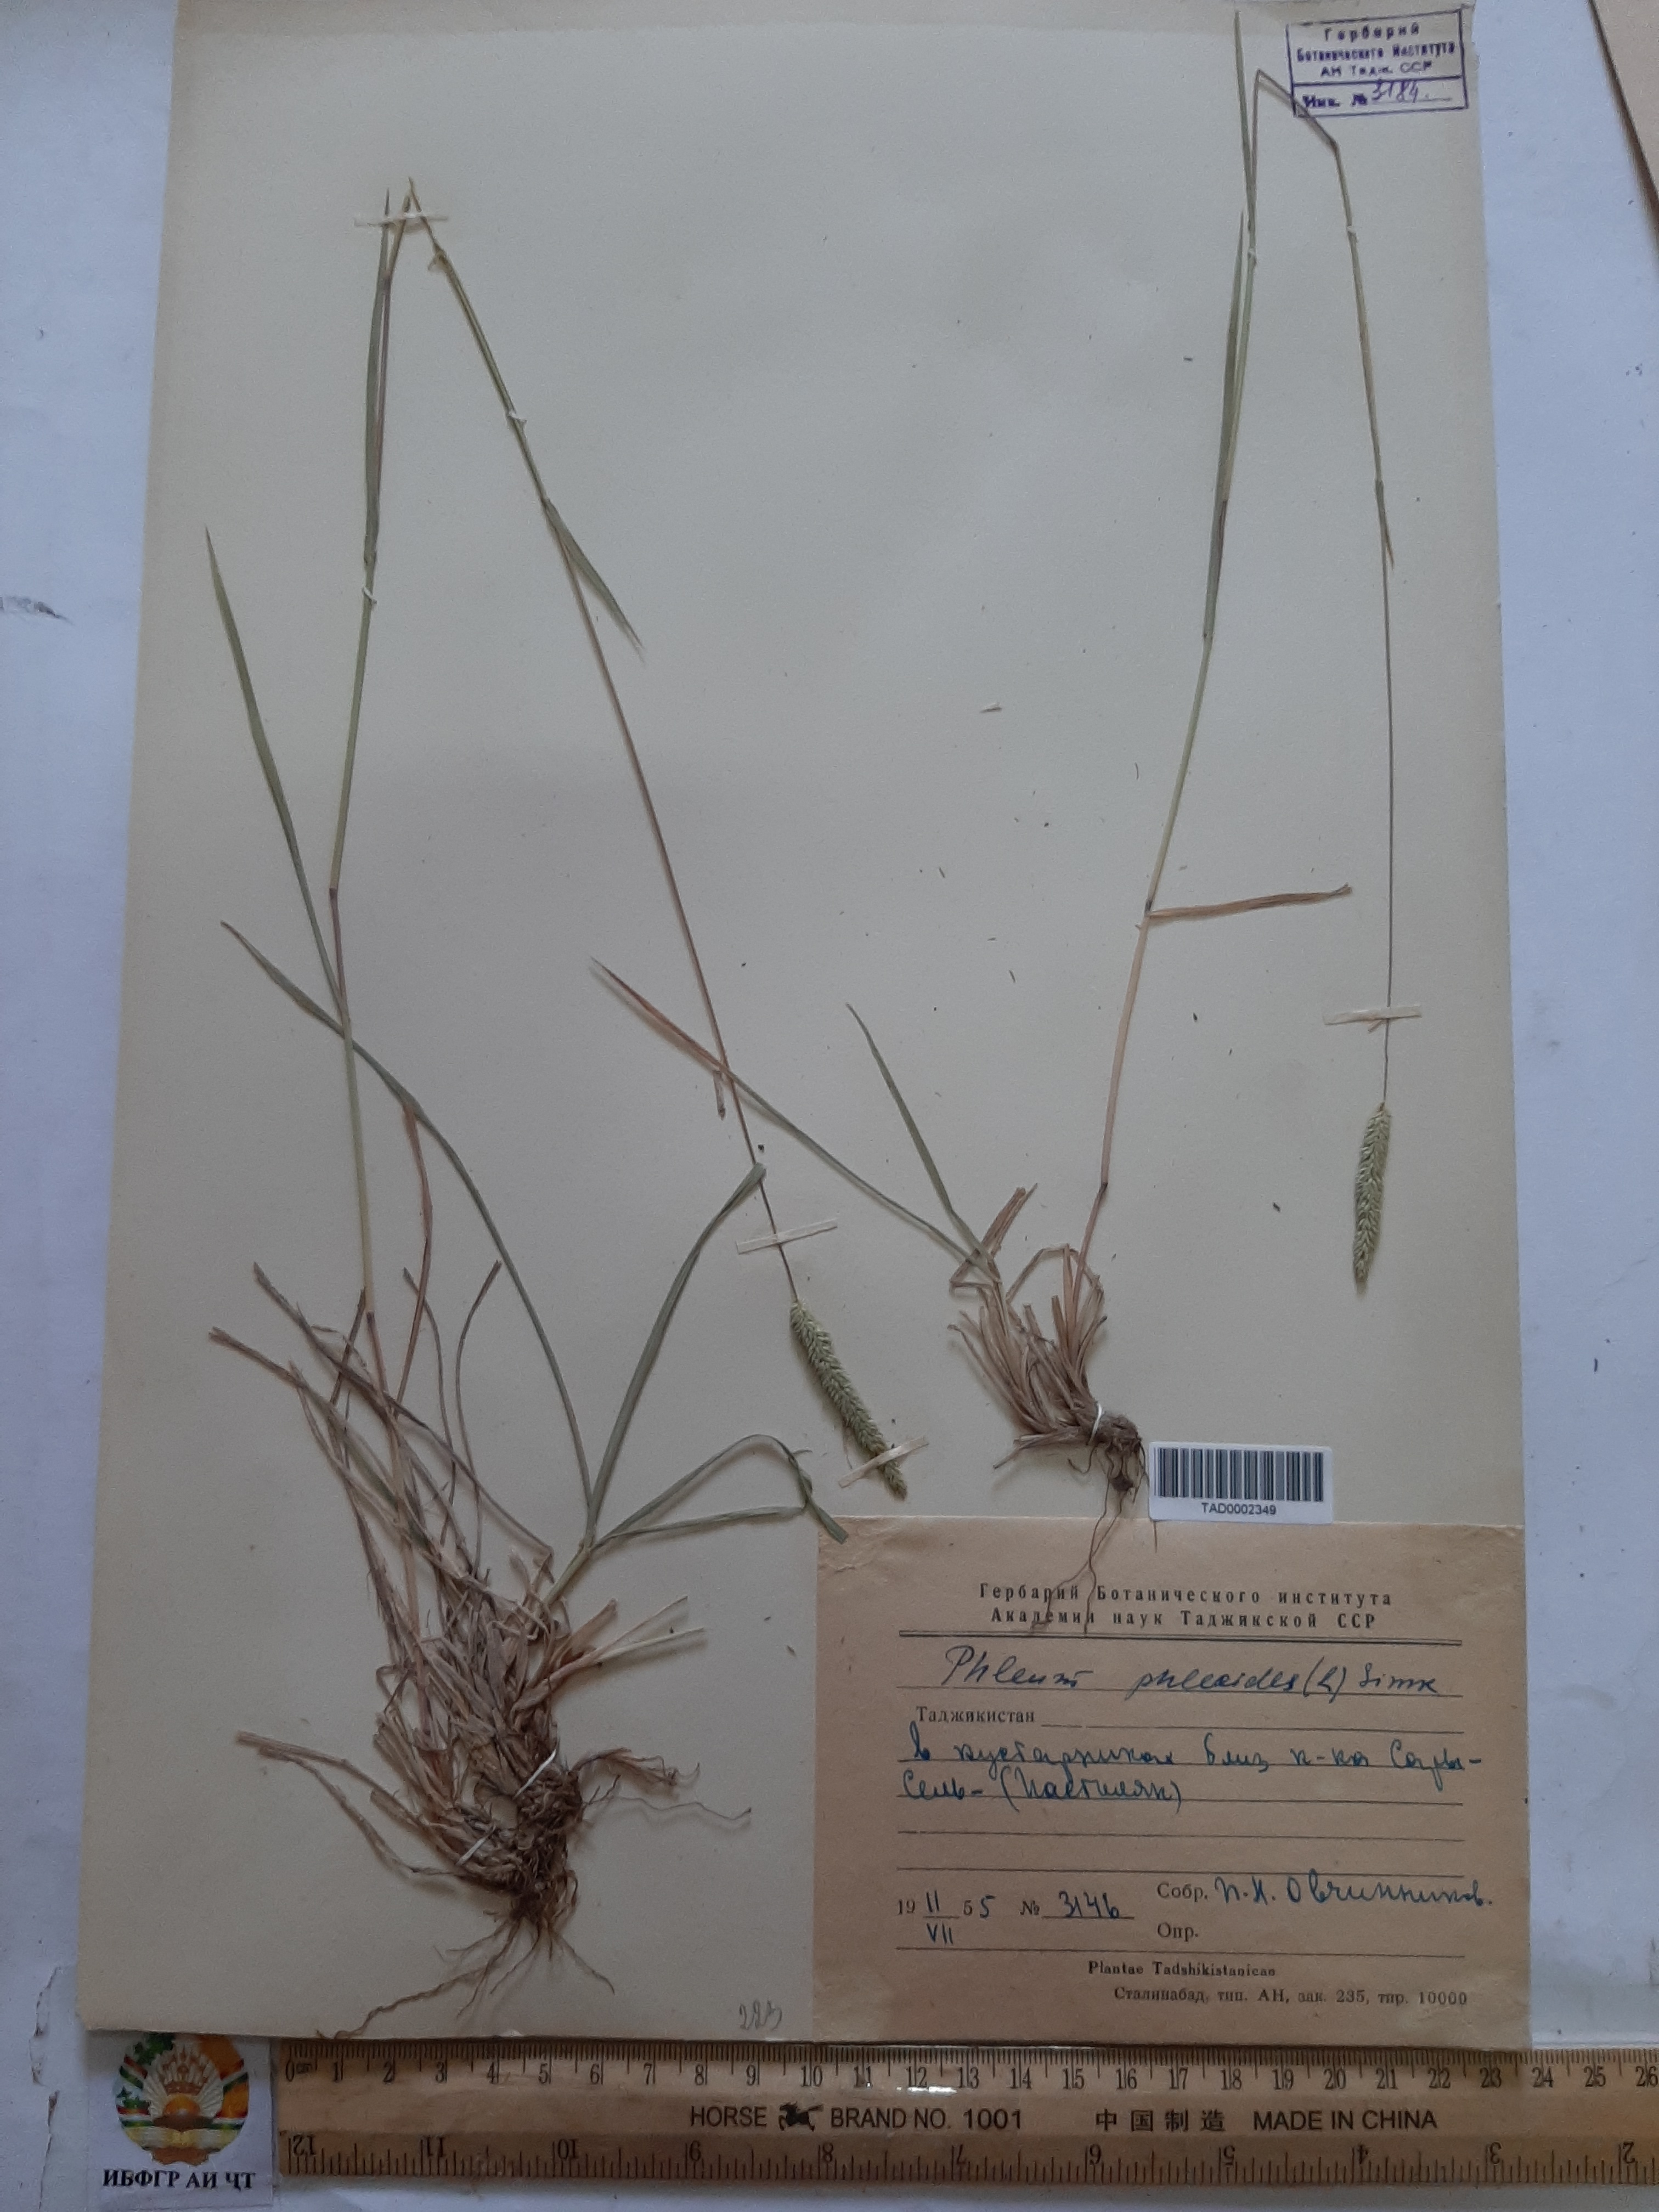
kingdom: Plantae
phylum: Tracheophyta
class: Liliopsida
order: Poales
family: Poaceae
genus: Phleum
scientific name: Phleum phleoides
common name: Purple-stem cat's-tail
